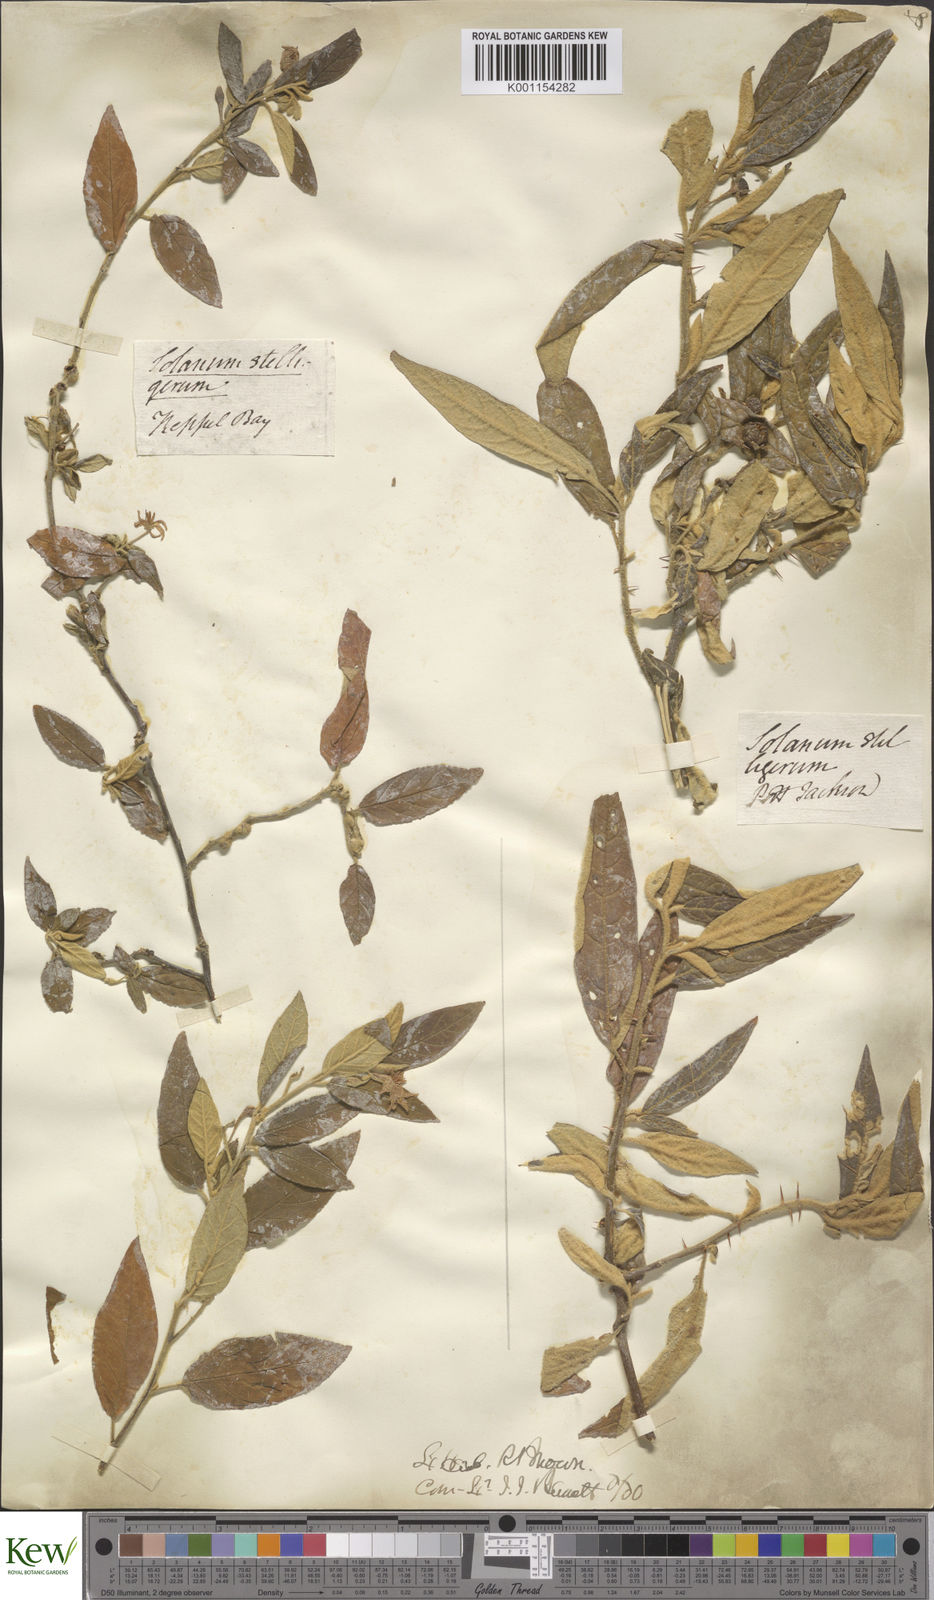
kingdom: Plantae
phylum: Tracheophyta
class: Magnoliopsida
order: Solanales
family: Solanaceae
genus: Solanum
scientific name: Solanum stelligerum
